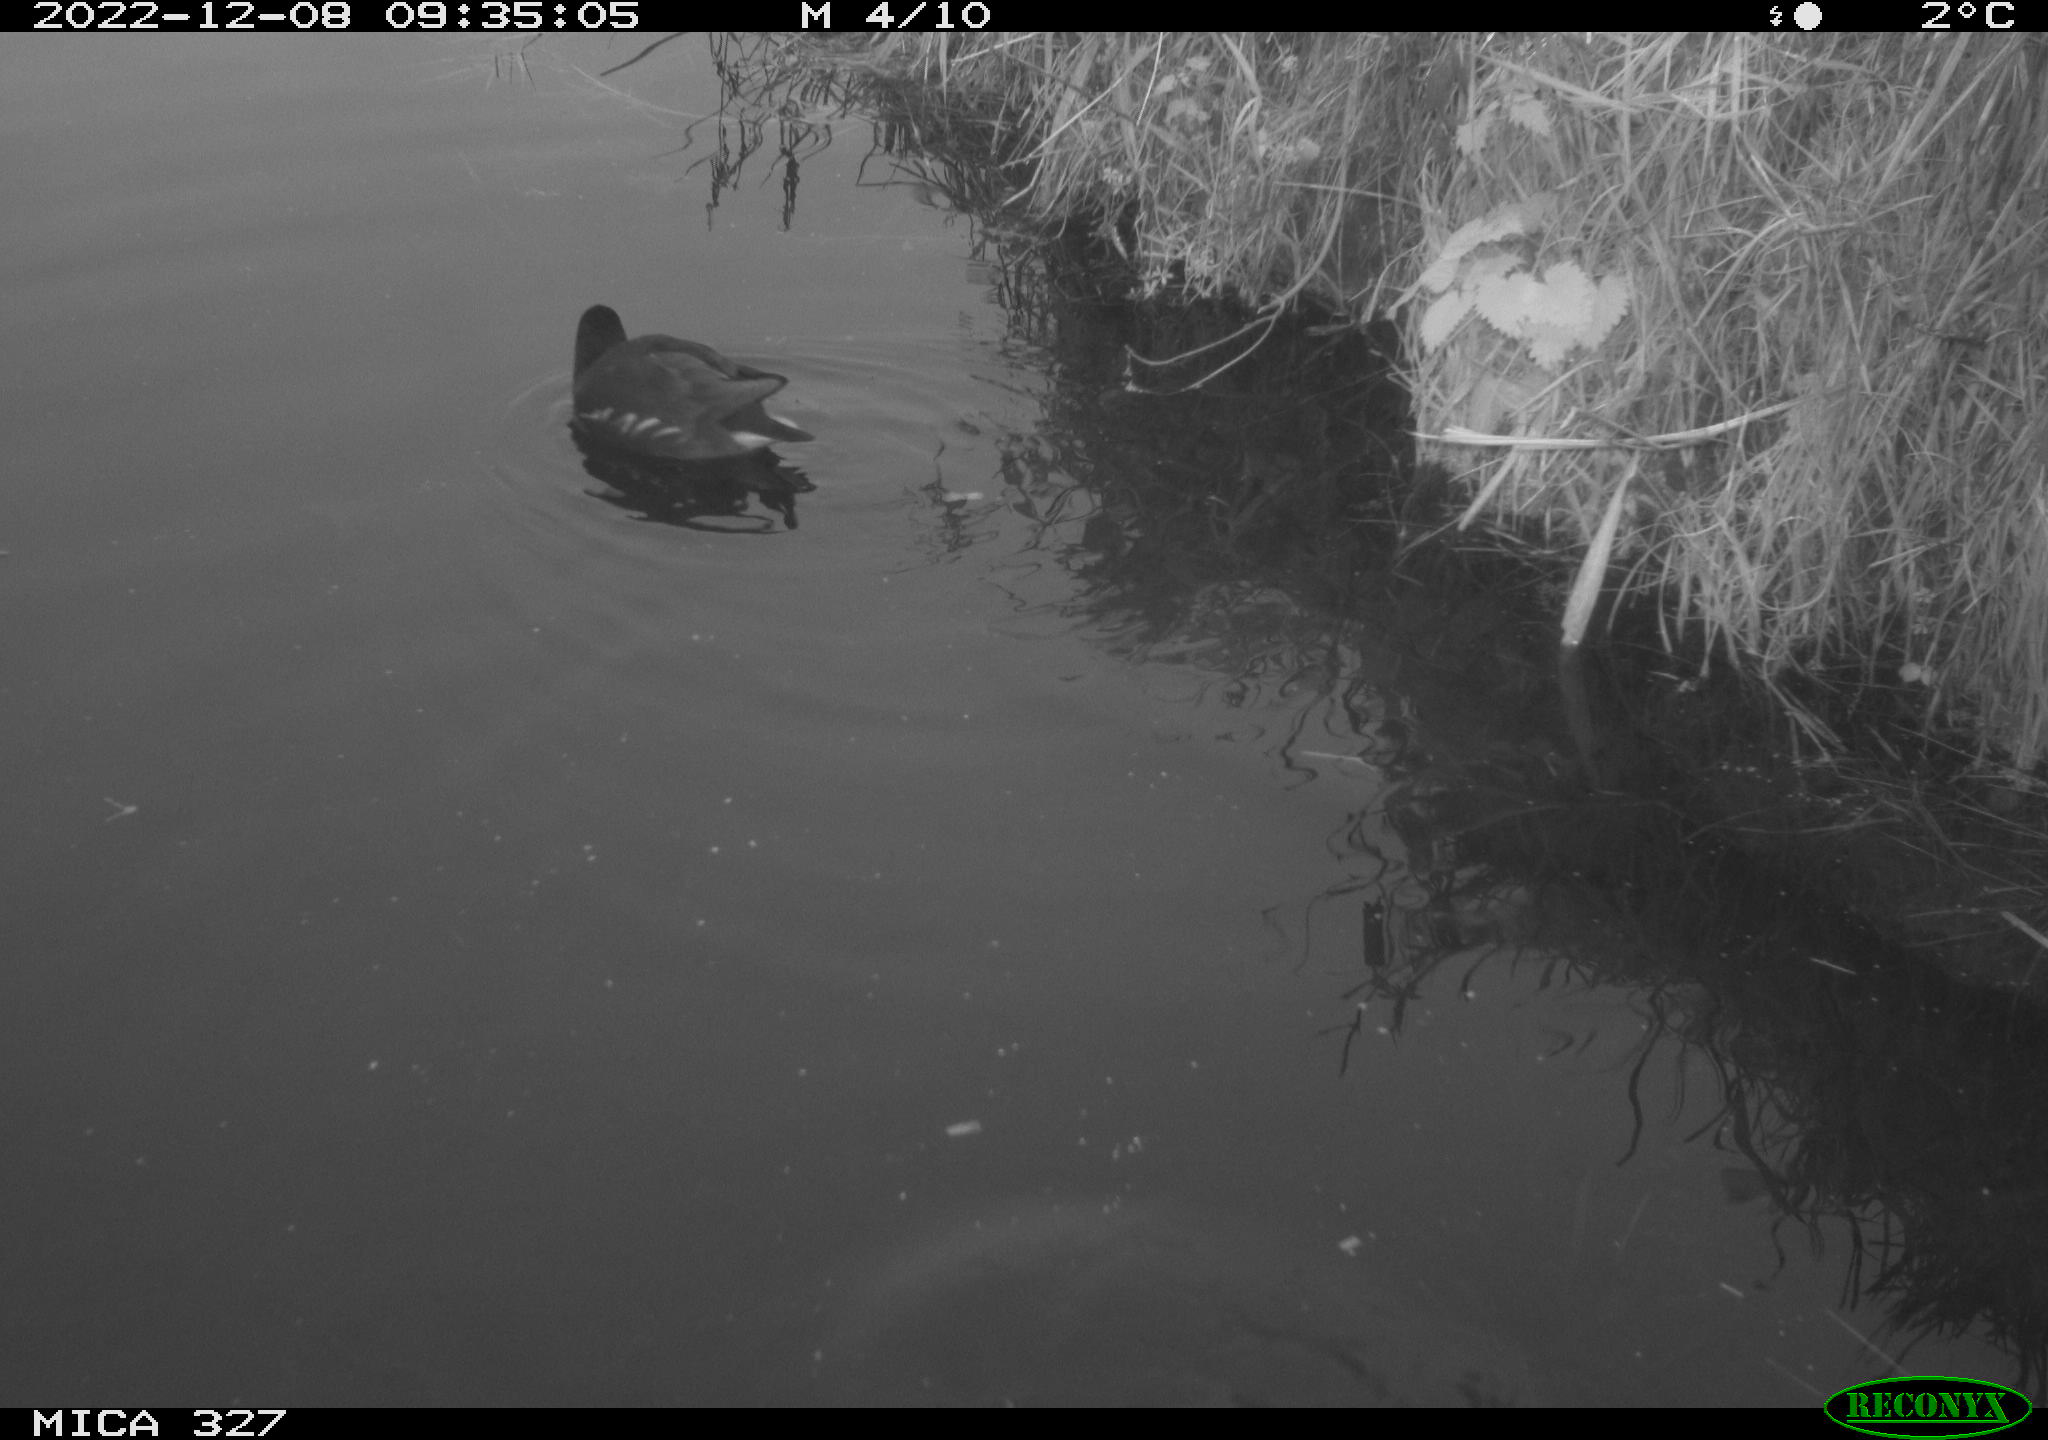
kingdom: Animalia
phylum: Chordata
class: Aves
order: Gruiformes
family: Rallidae
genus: Gallinula
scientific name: Gallinula chloropus
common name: Common moorhen
